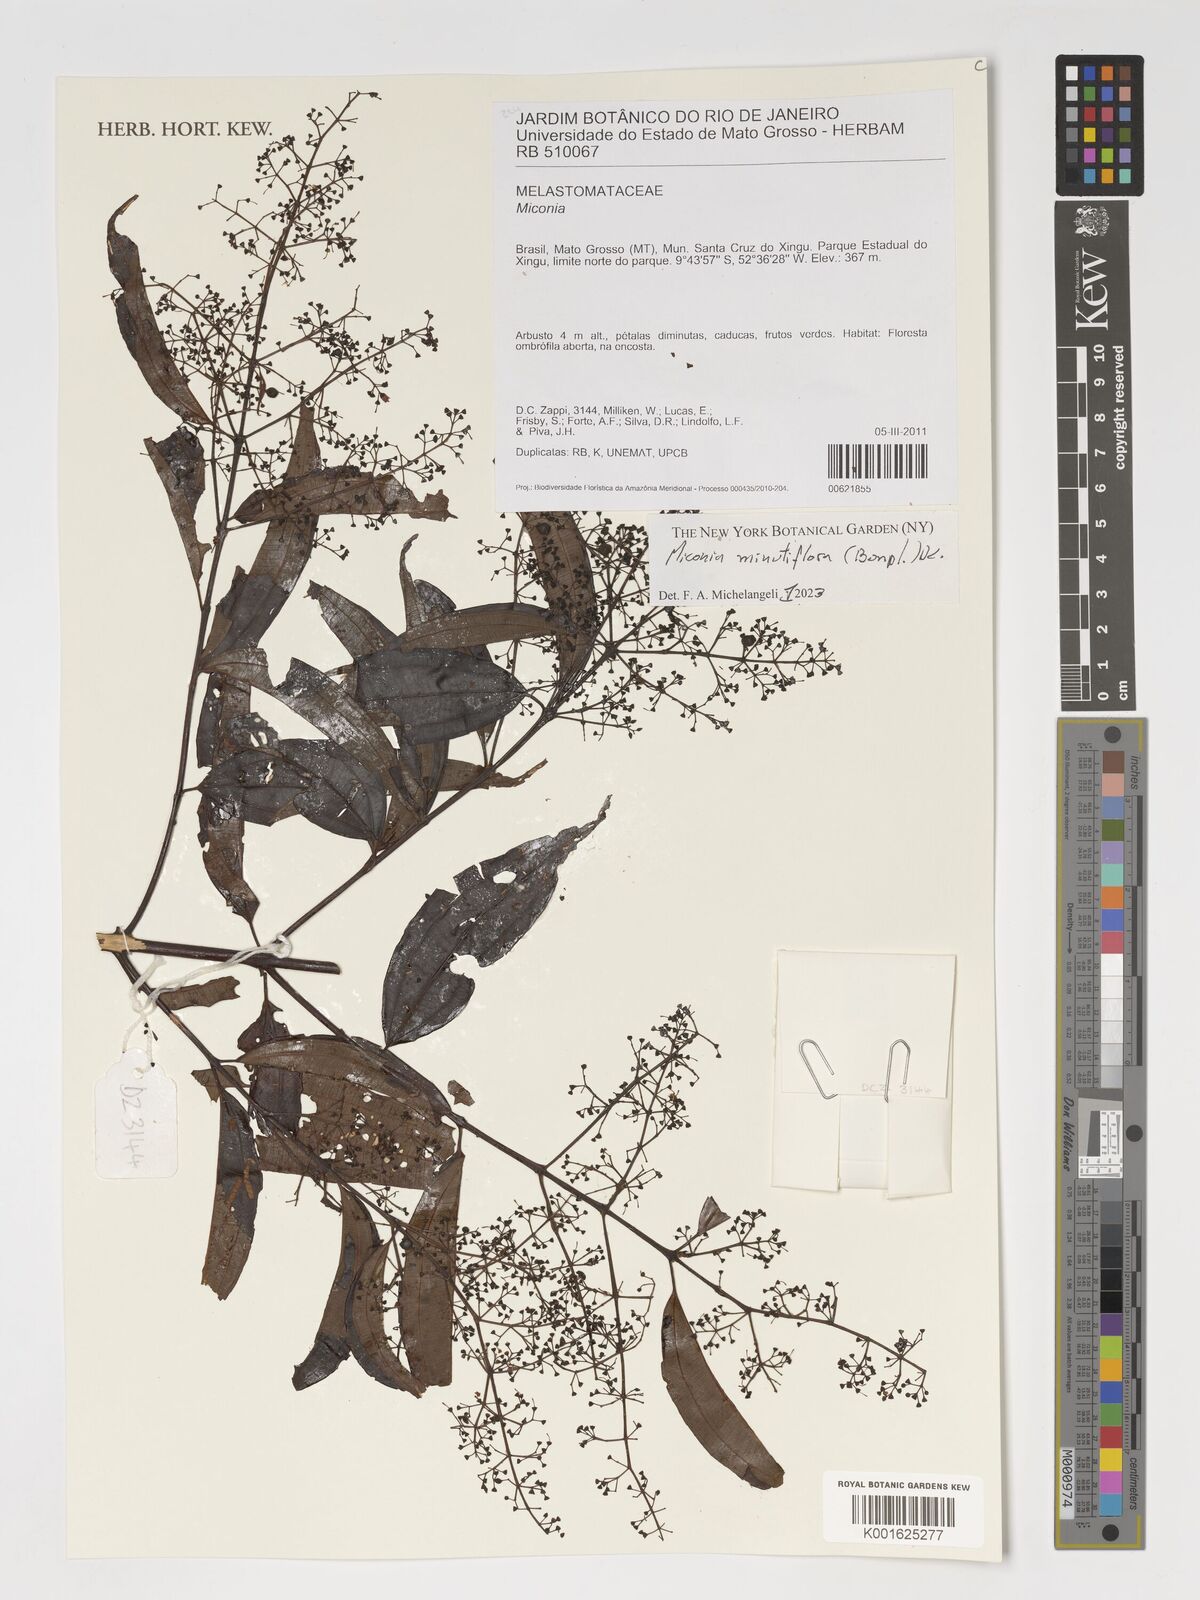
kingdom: Plantae
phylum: Tracheophyta
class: Magnoliopsida
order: Myrtales
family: Melastomataceae
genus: Miconia
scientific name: Miconia minutiflora
